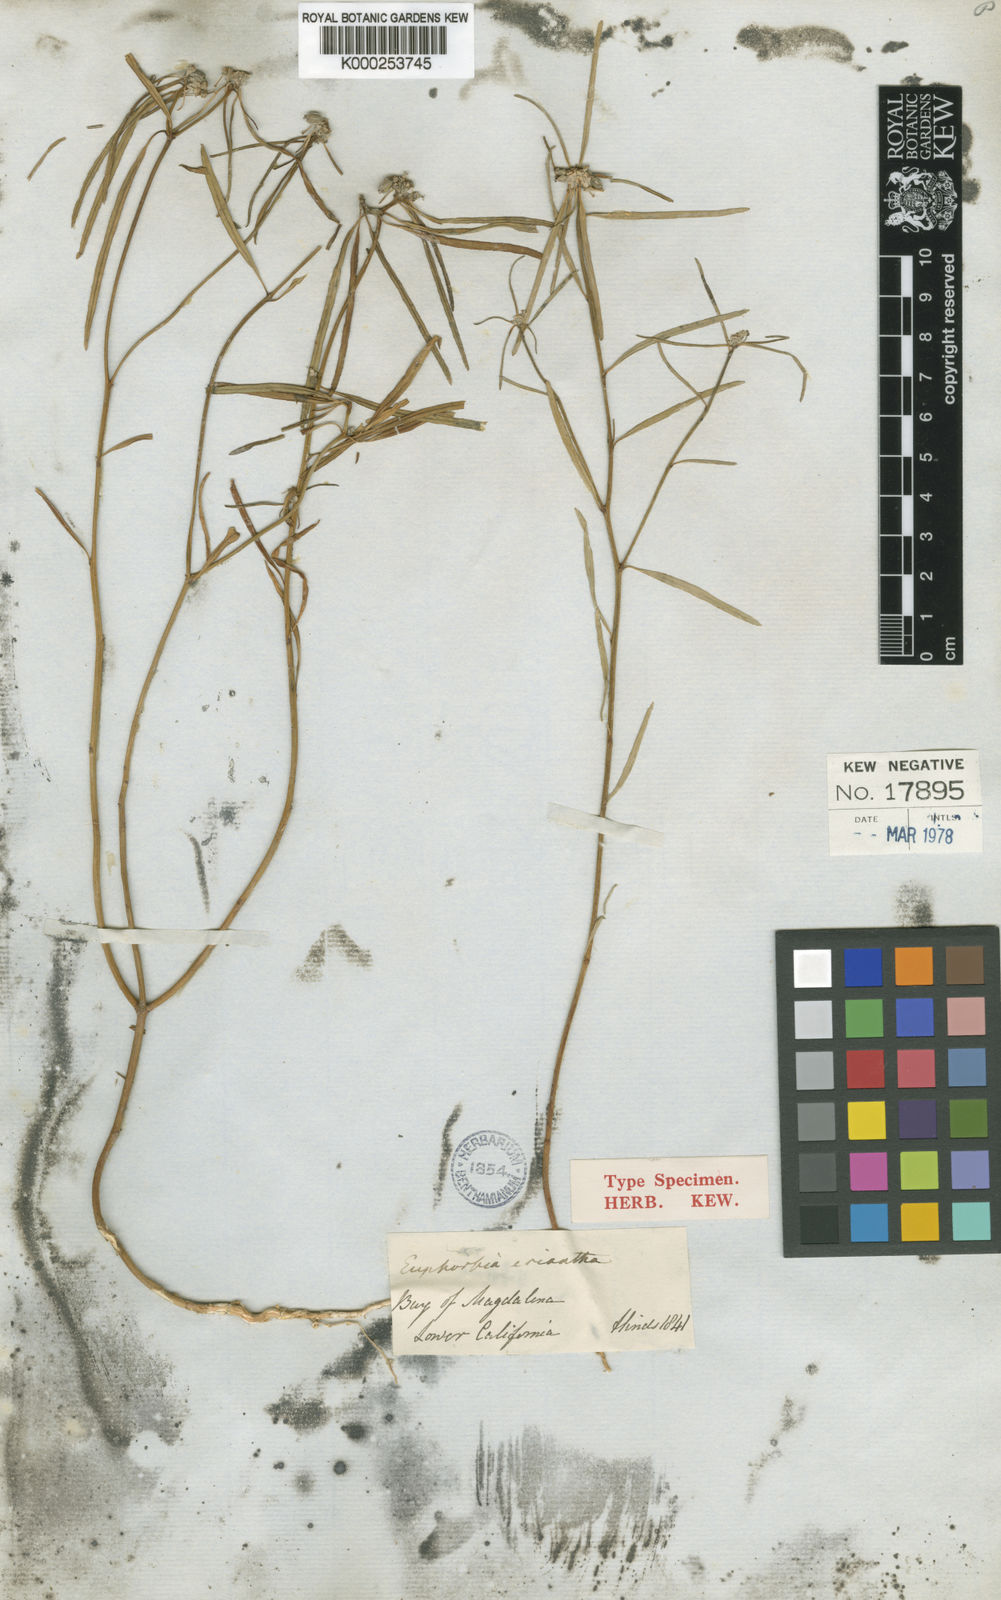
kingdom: Plantae
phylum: Tracheophyta
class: Magnoliopsida
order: Malpighiales
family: Euphorbiaceae
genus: Euphorbia
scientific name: Euphorbia eriantha
